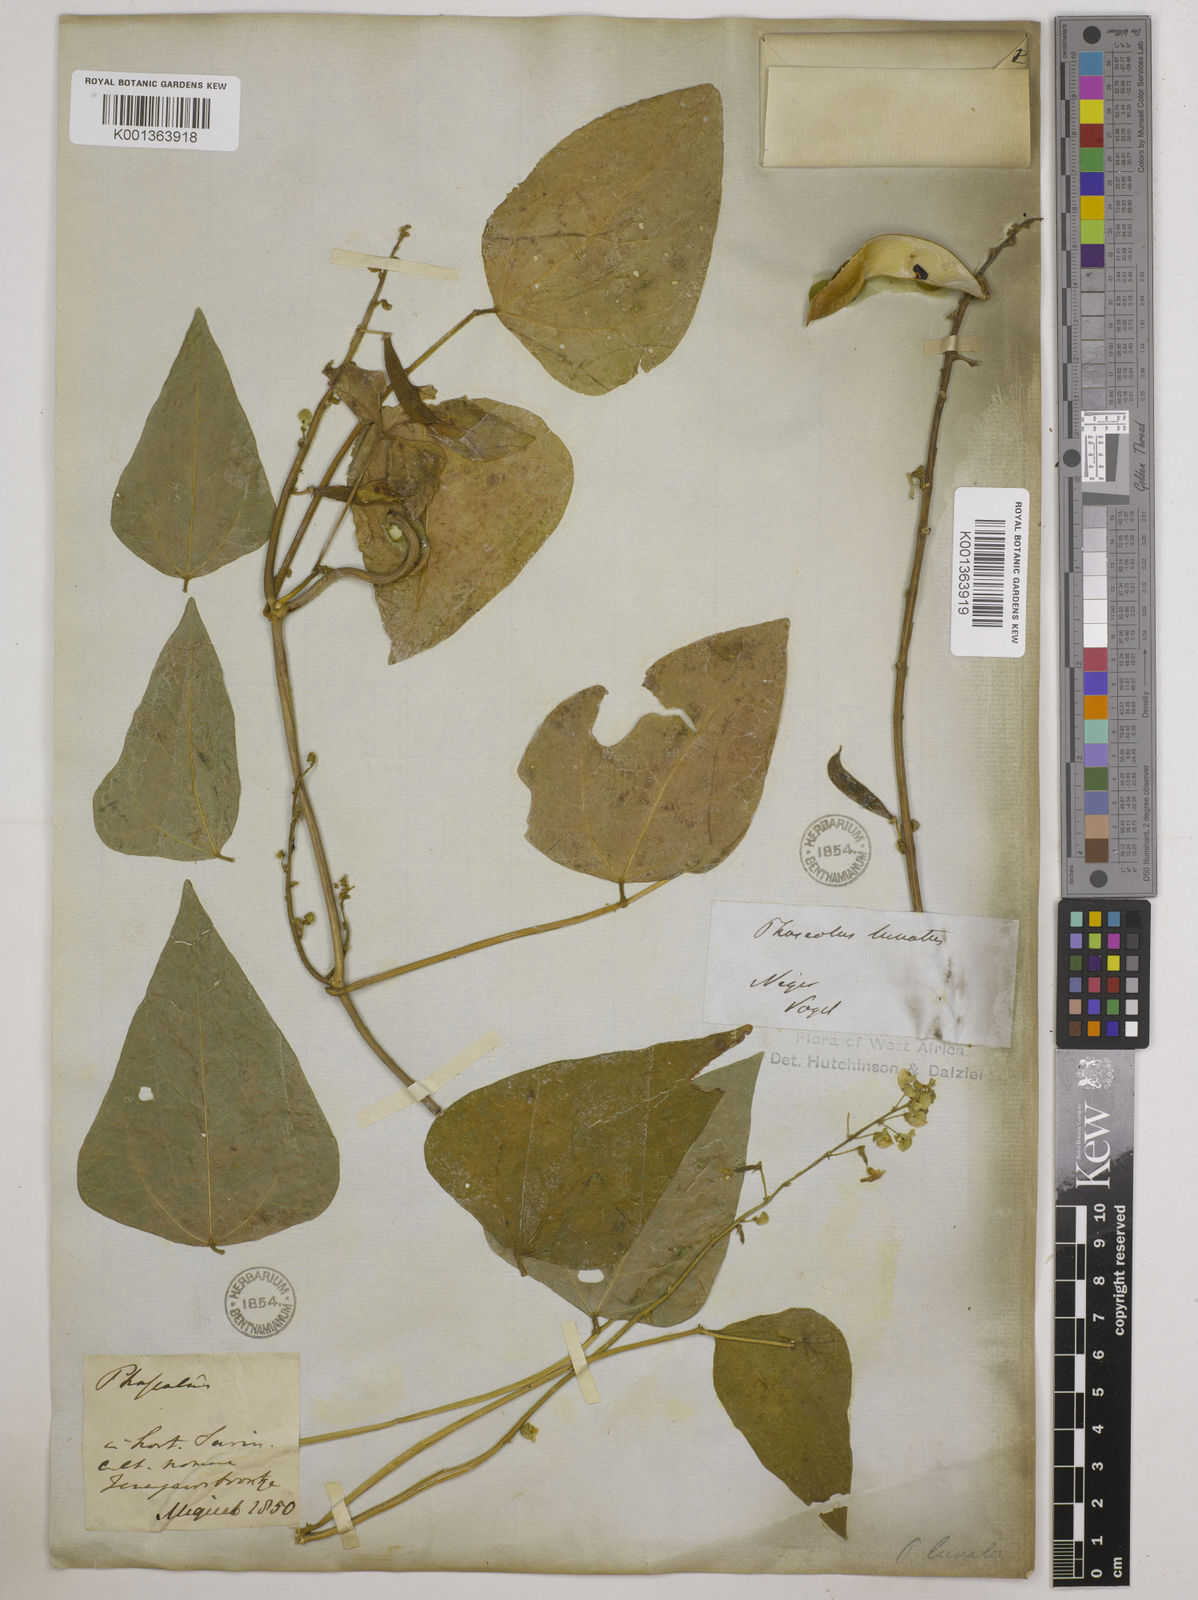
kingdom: Plantae
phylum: Tracheophyta
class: Magnoliopsida
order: Fabales
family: Fabaceae
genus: Phaseolus
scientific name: Phaseolus lunatus
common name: Sieva bean
